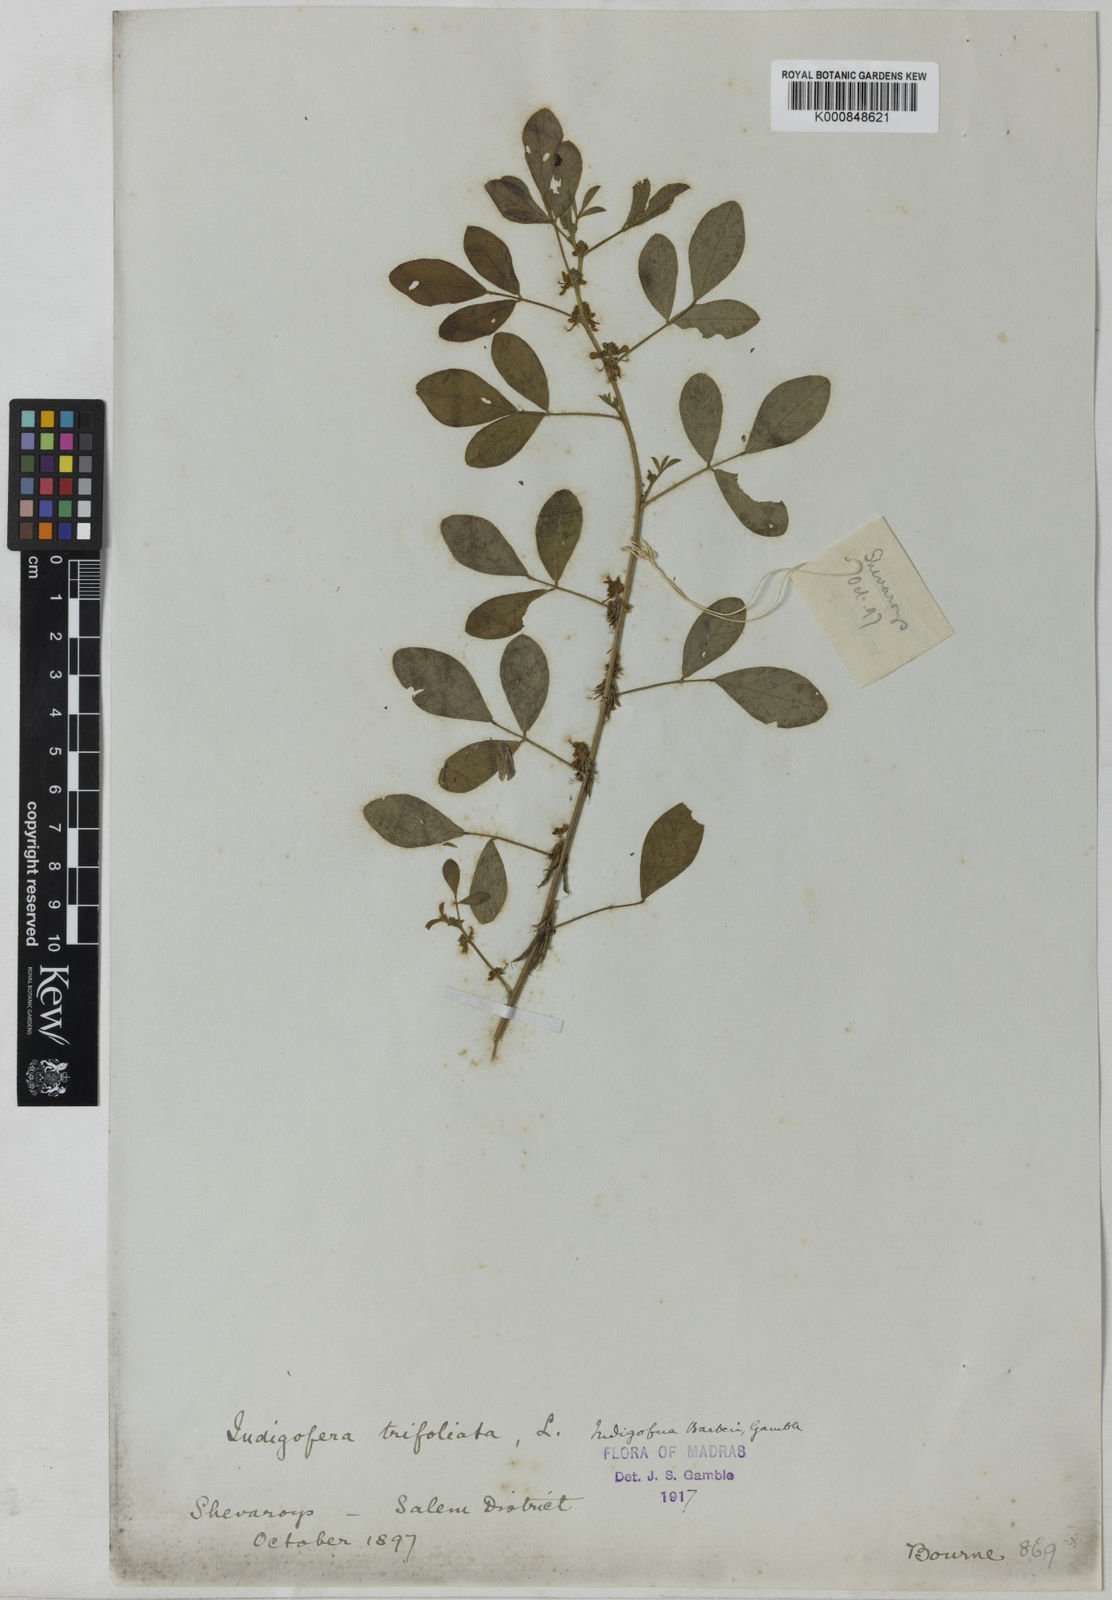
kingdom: Plantae
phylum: Tracheophyta
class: Magnoliopsida
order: Fabales
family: Fabaceae
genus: Indigofera
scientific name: Indigofera barberi
